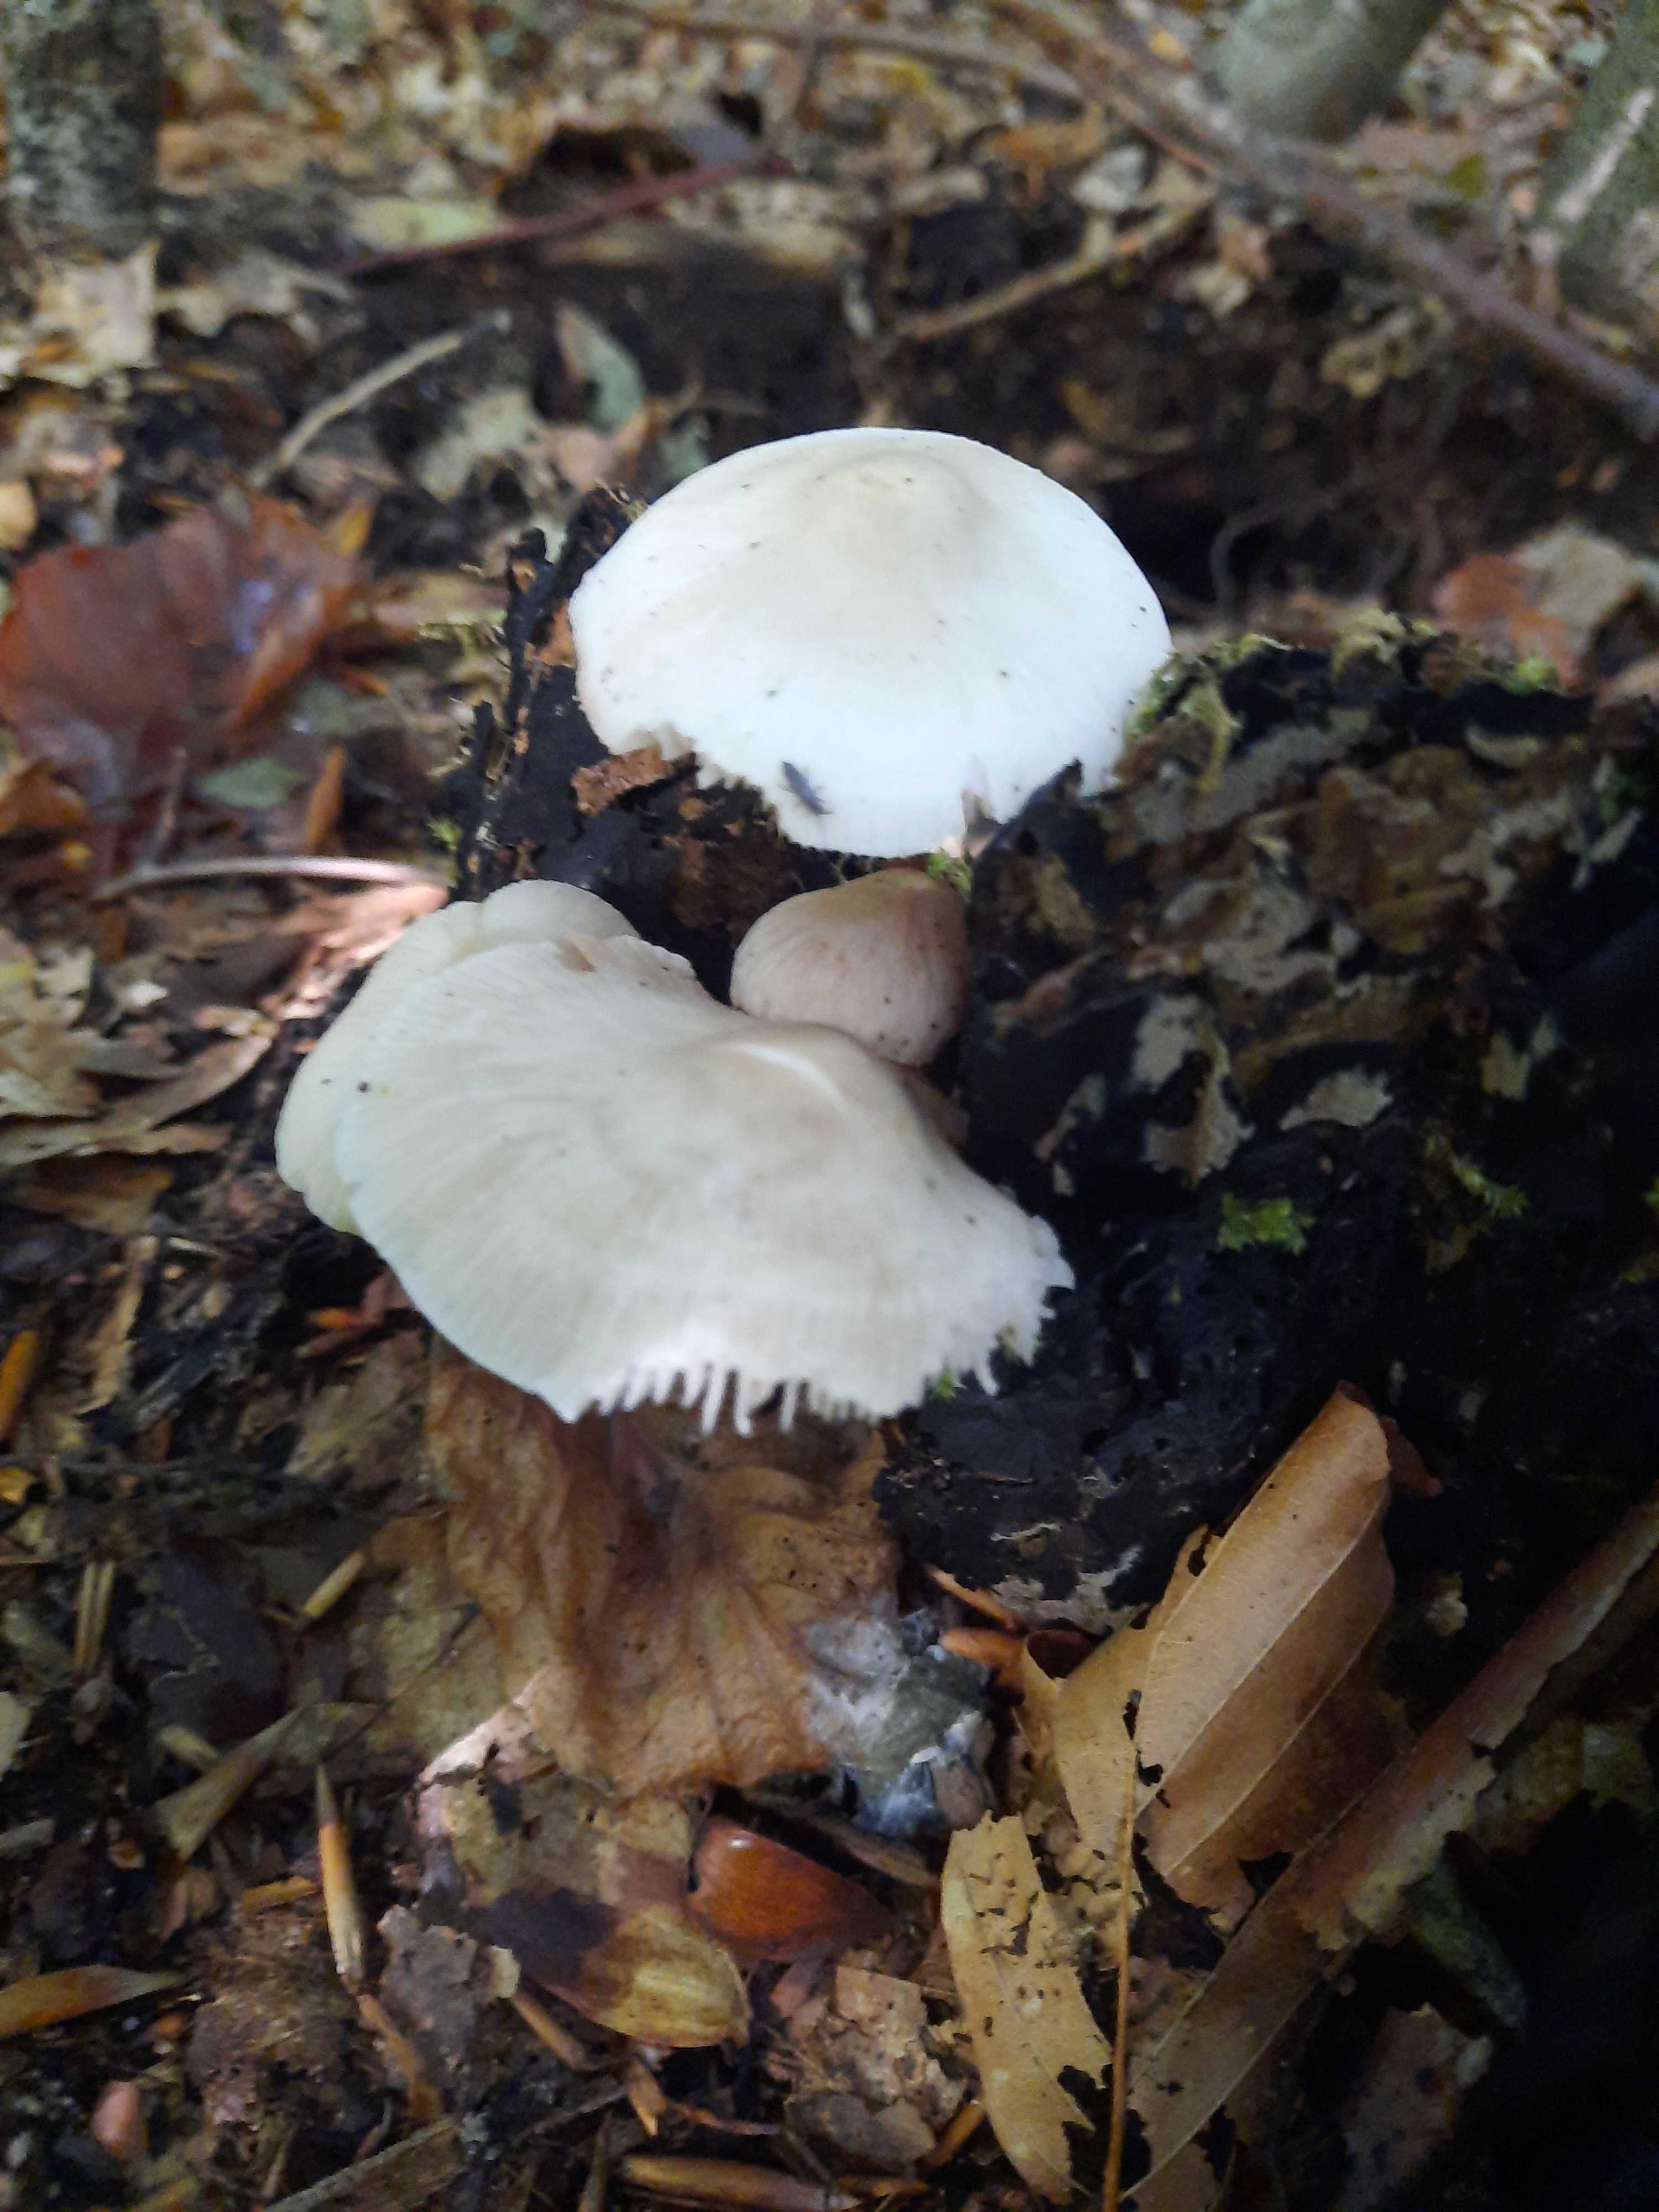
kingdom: Fungi
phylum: Basidiomycota
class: Agaricomycetes
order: Agaricales
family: Mycenaceae
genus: Mycena
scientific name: Mycena galericulata
